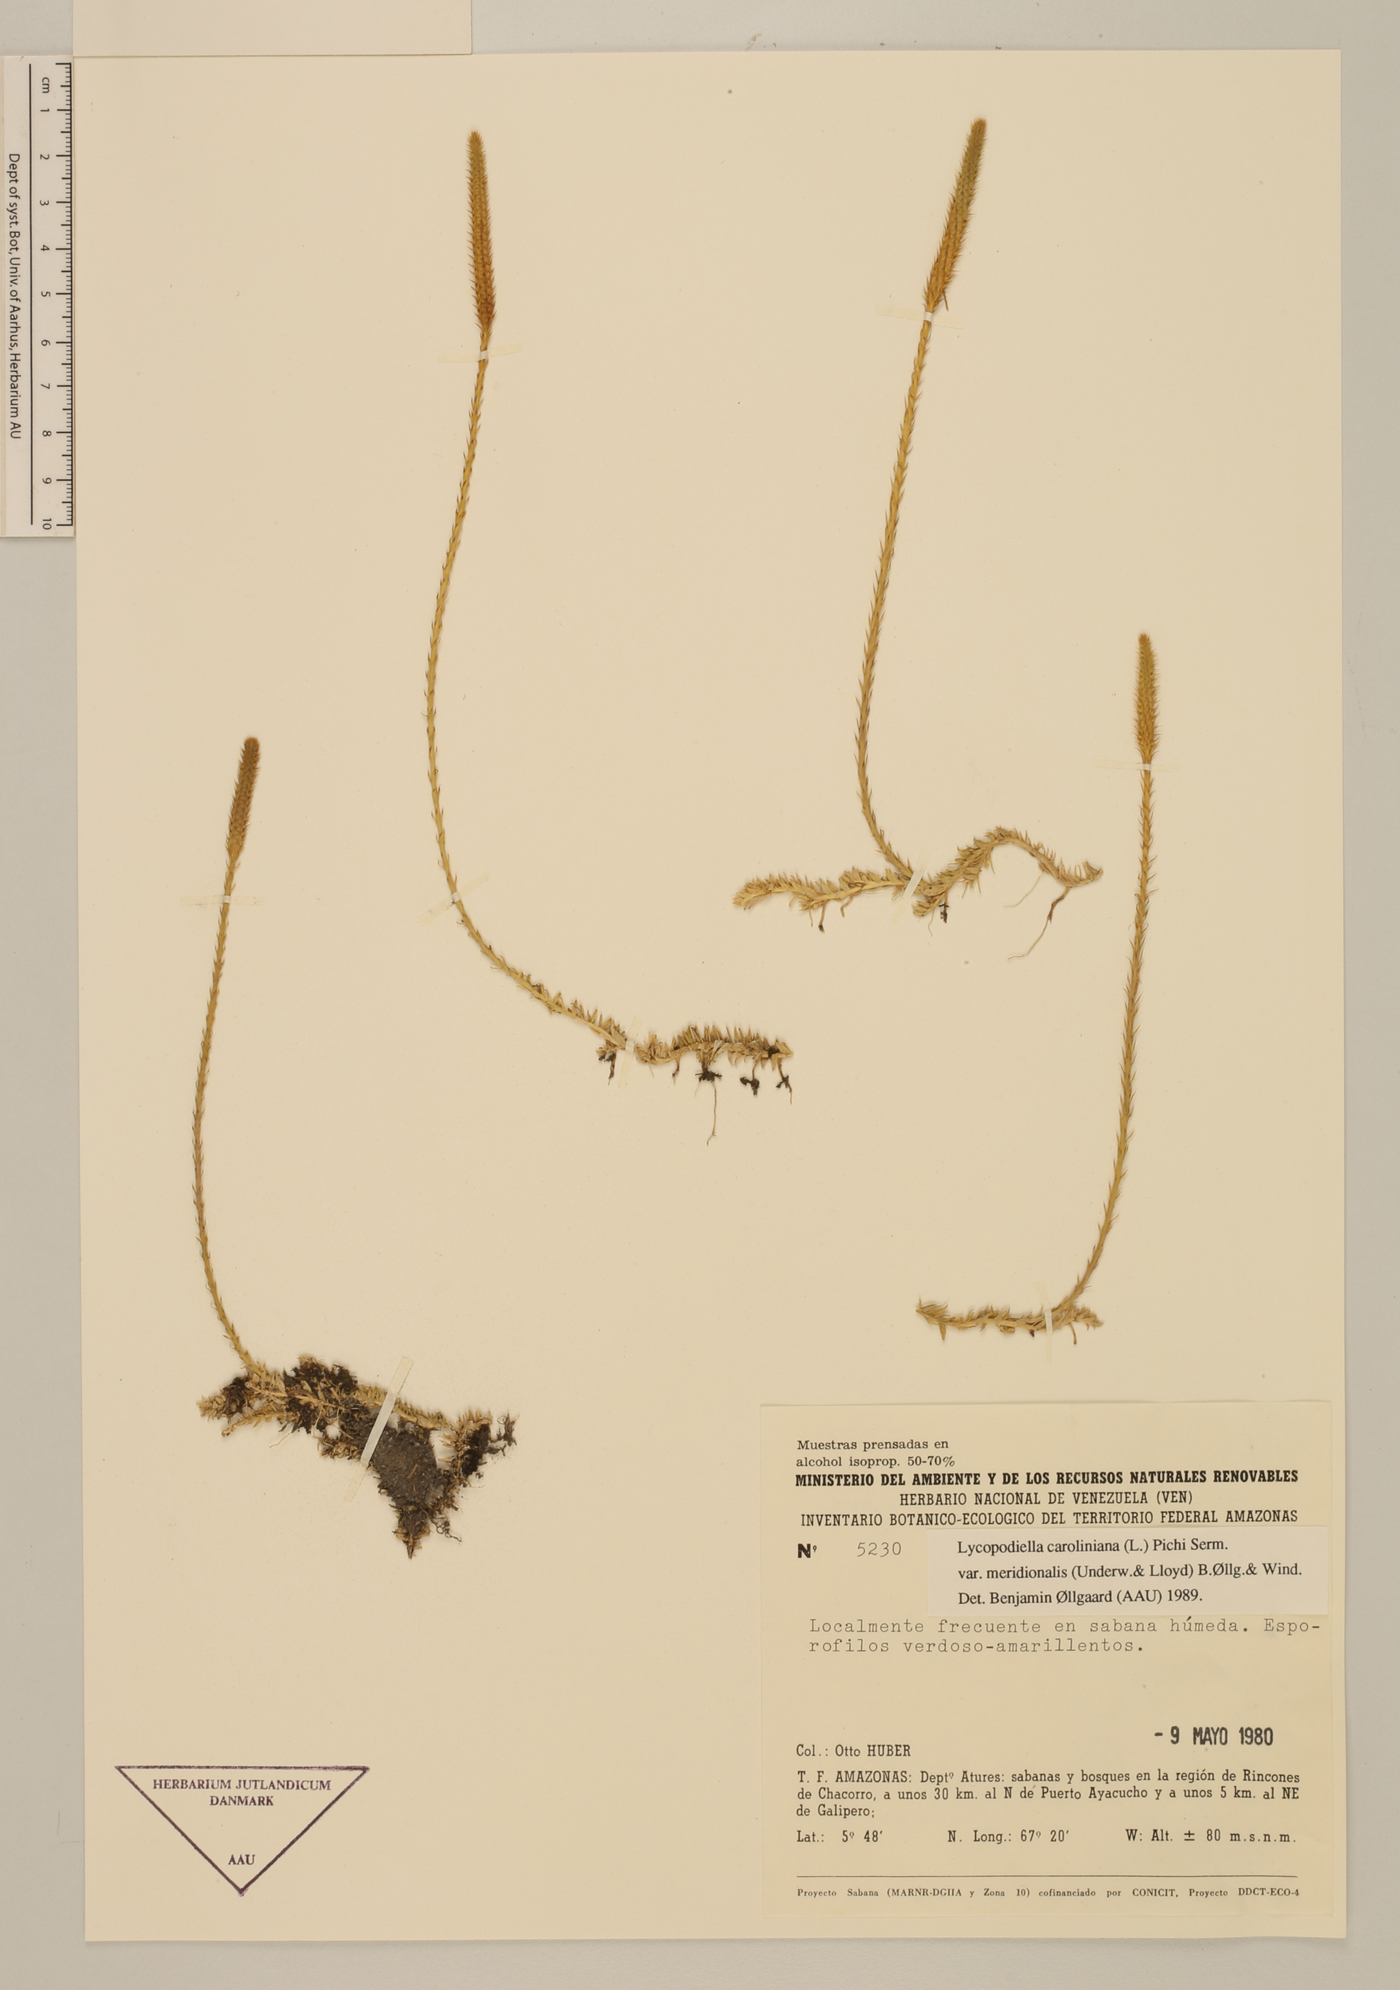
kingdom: Plantae
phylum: Tracheophyta
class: Lycopodiopsida
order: Lycopodiales
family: Lycopodiaceae
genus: Pseudolycopodiella
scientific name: Pseudolycopodiella meridionalis
